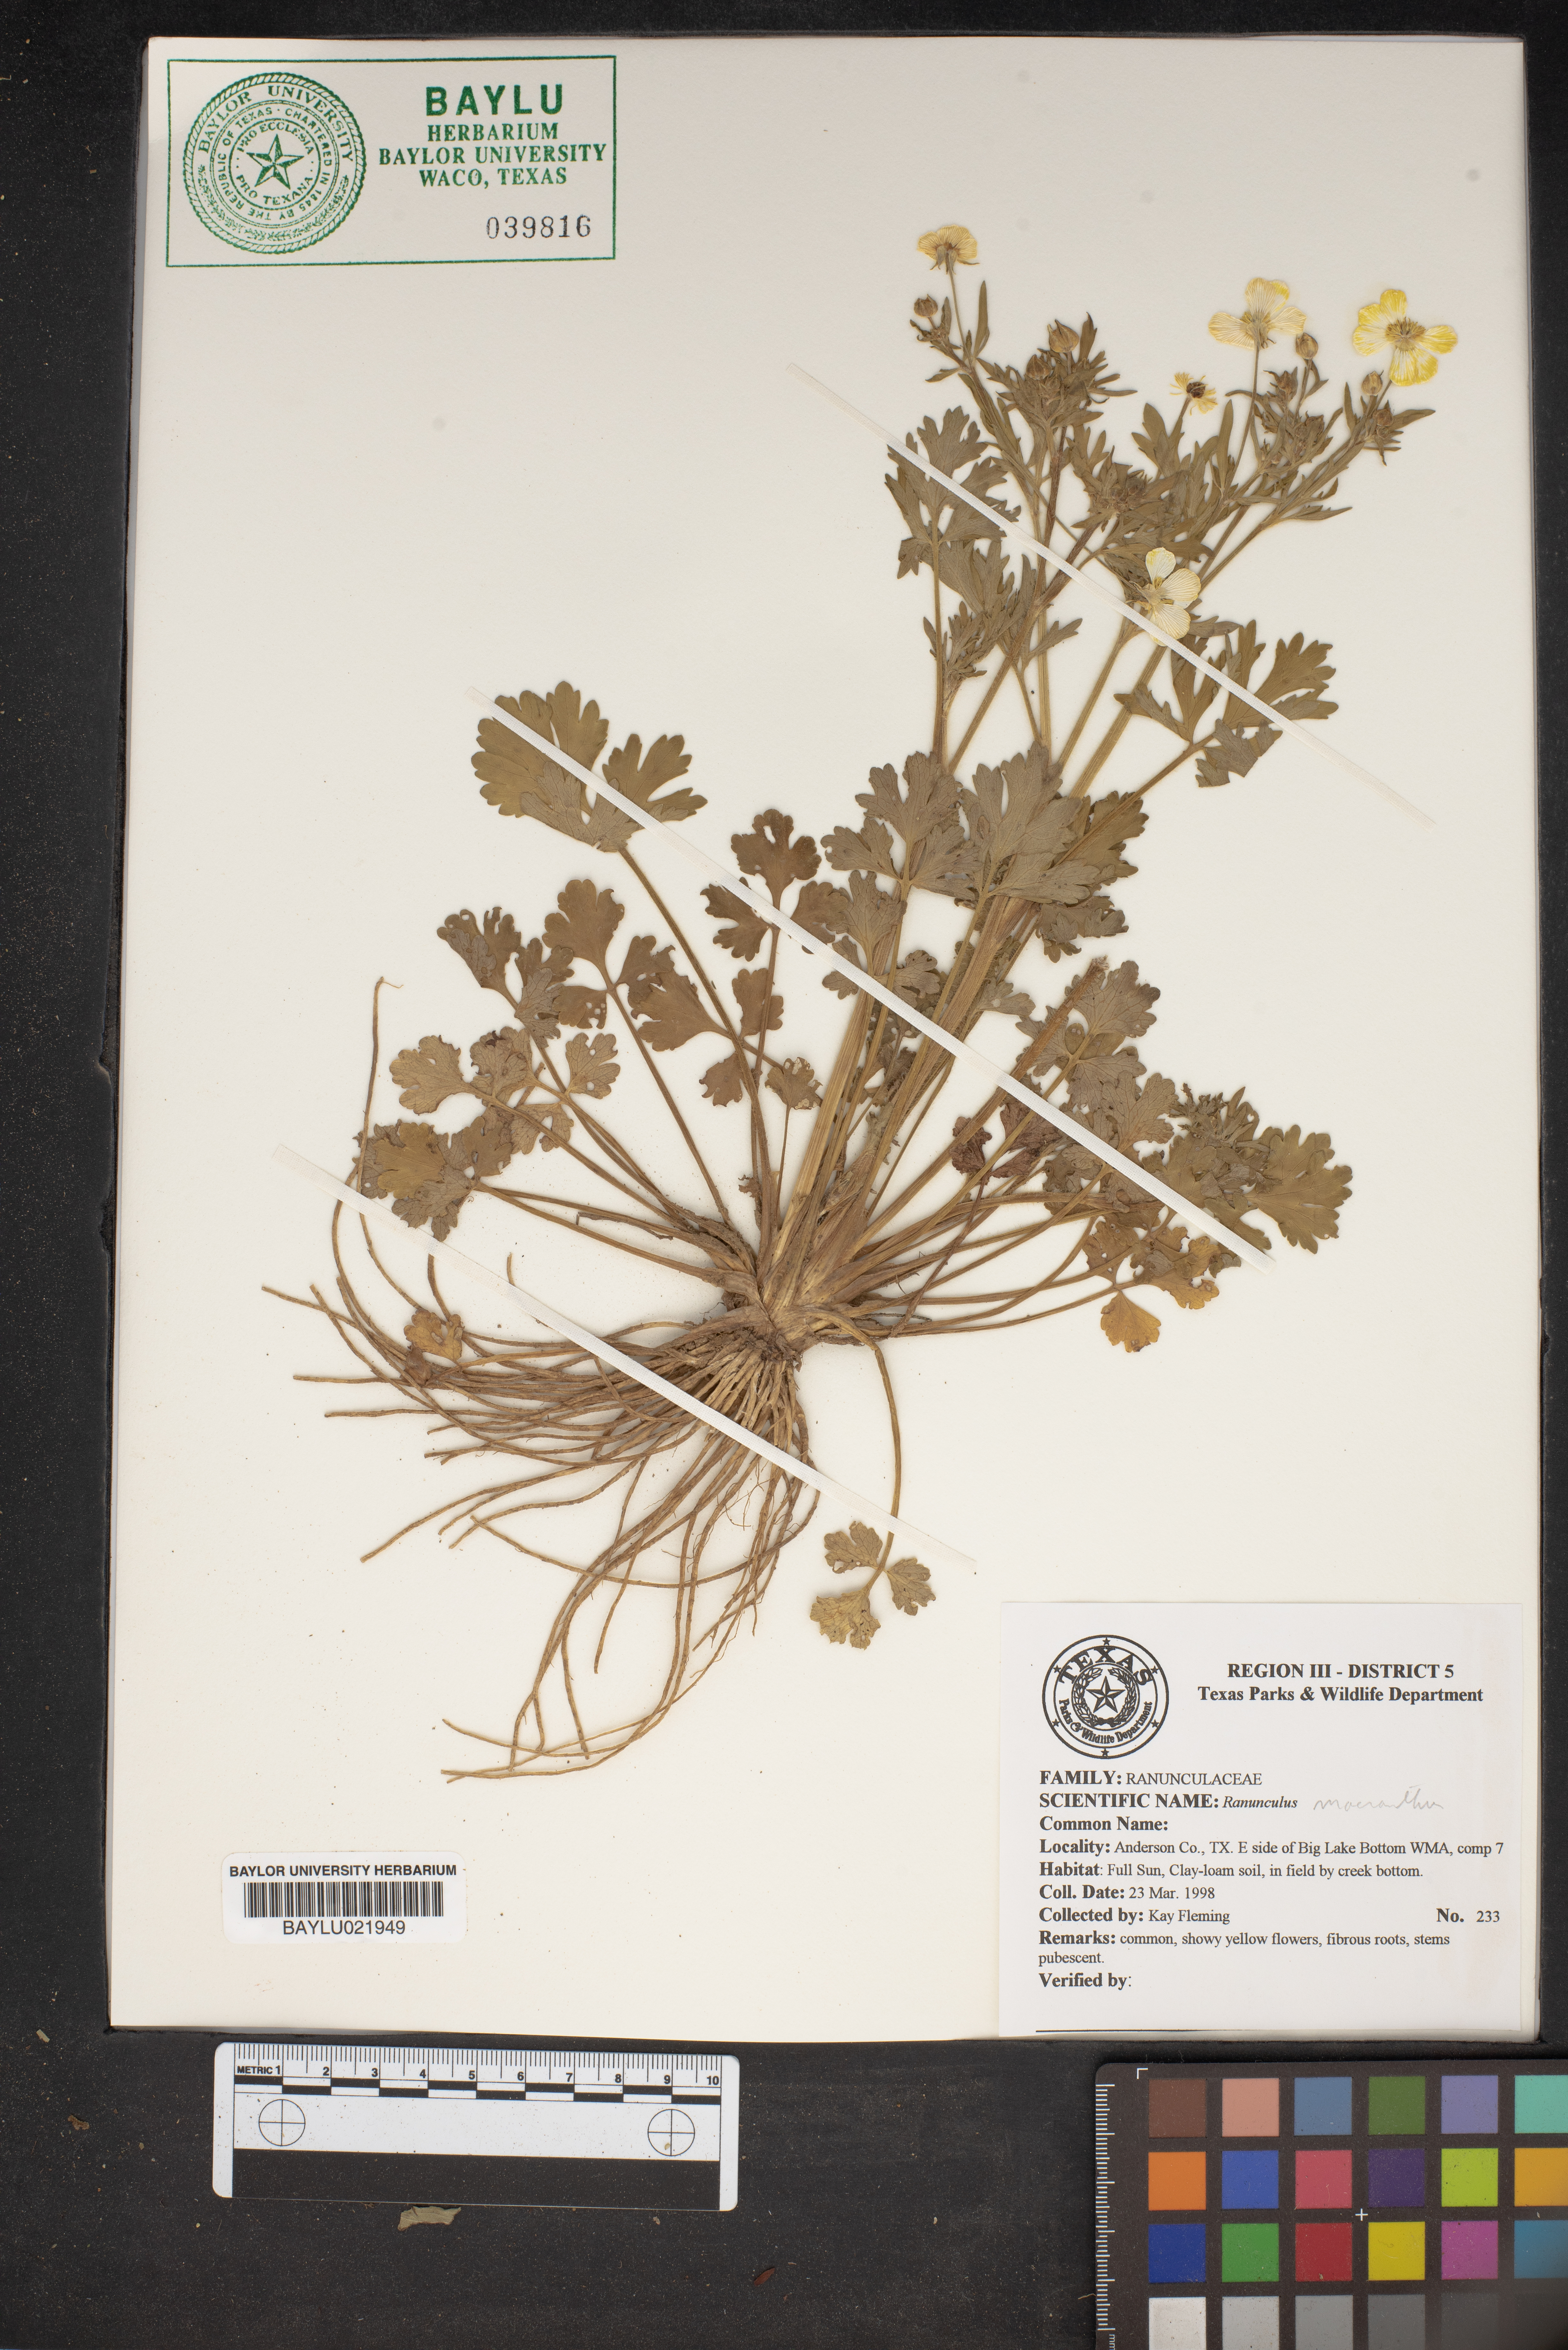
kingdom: Plantae
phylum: Tracheophyta
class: Magnoliopsida
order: Ranunculales
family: Ranunculaceae
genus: Ranunculus
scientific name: Ranunculus macranthus
